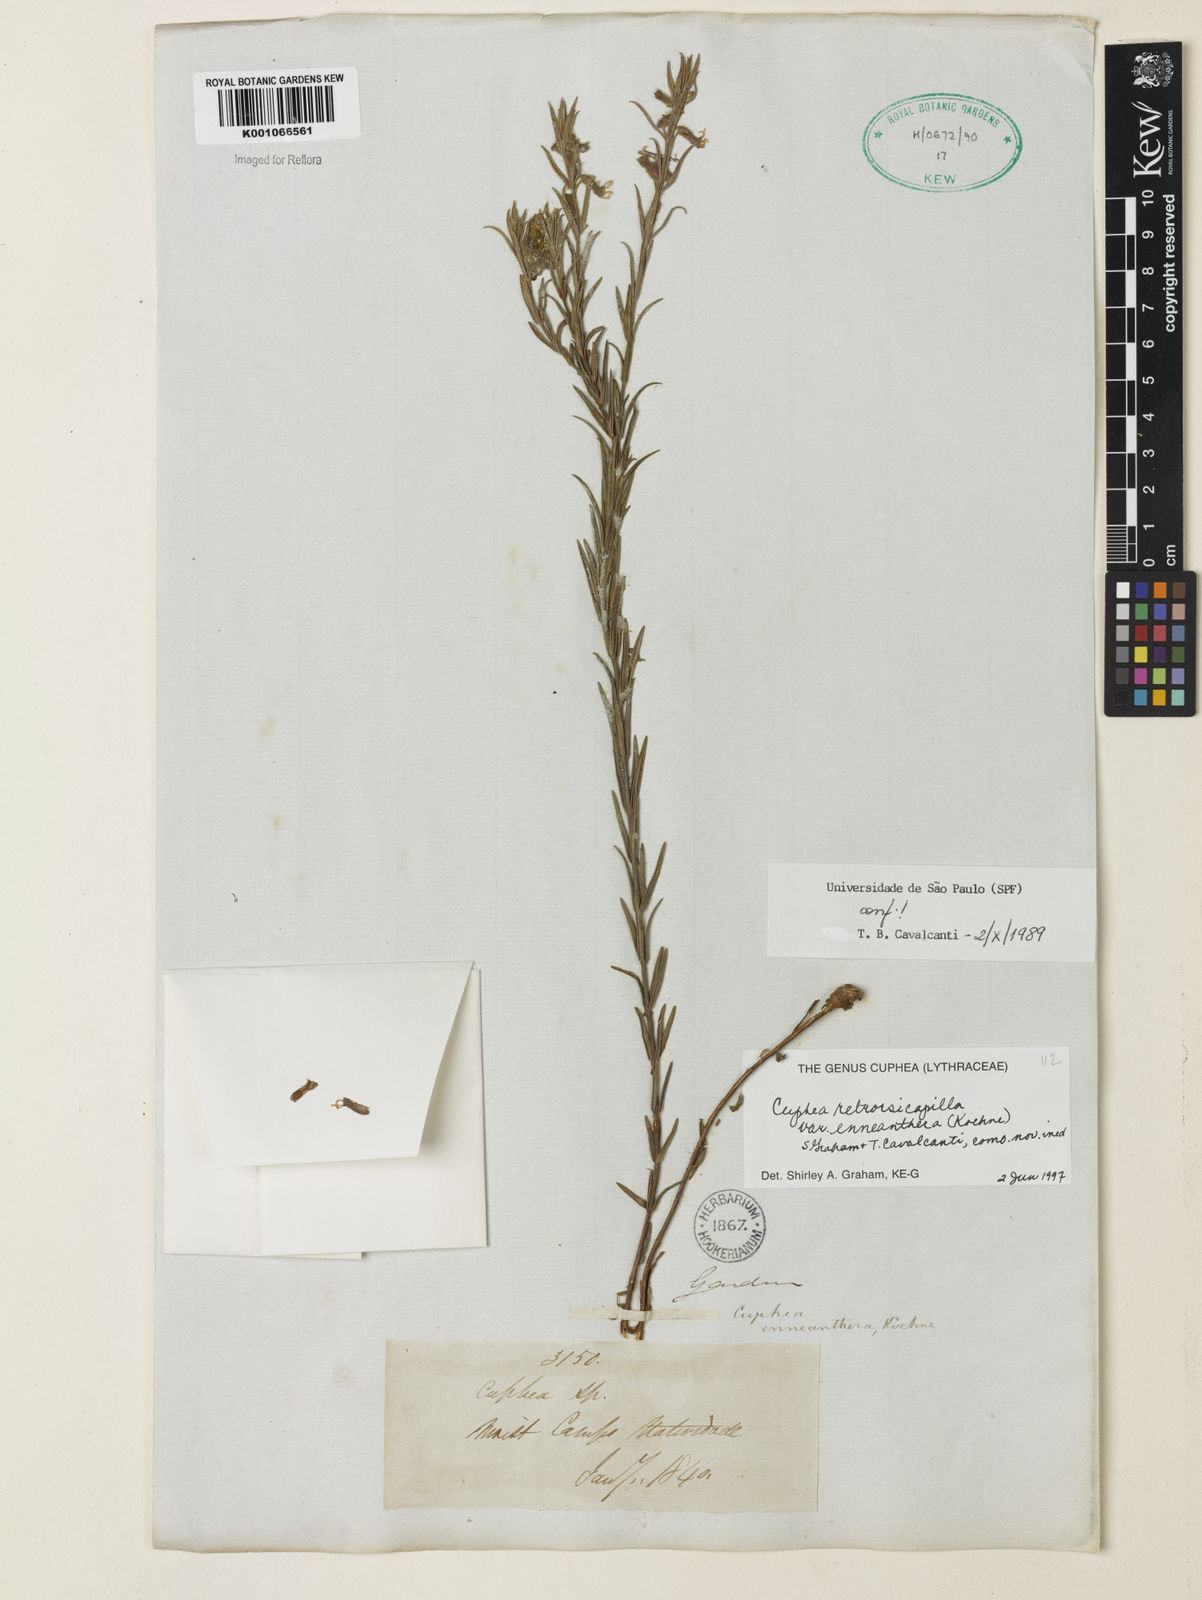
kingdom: Plantae
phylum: Tracheophyta
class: Magnoliopsida
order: Myrtales
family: Lythraceae
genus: Cuphea
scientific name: Cuphea retrorsicapilla
